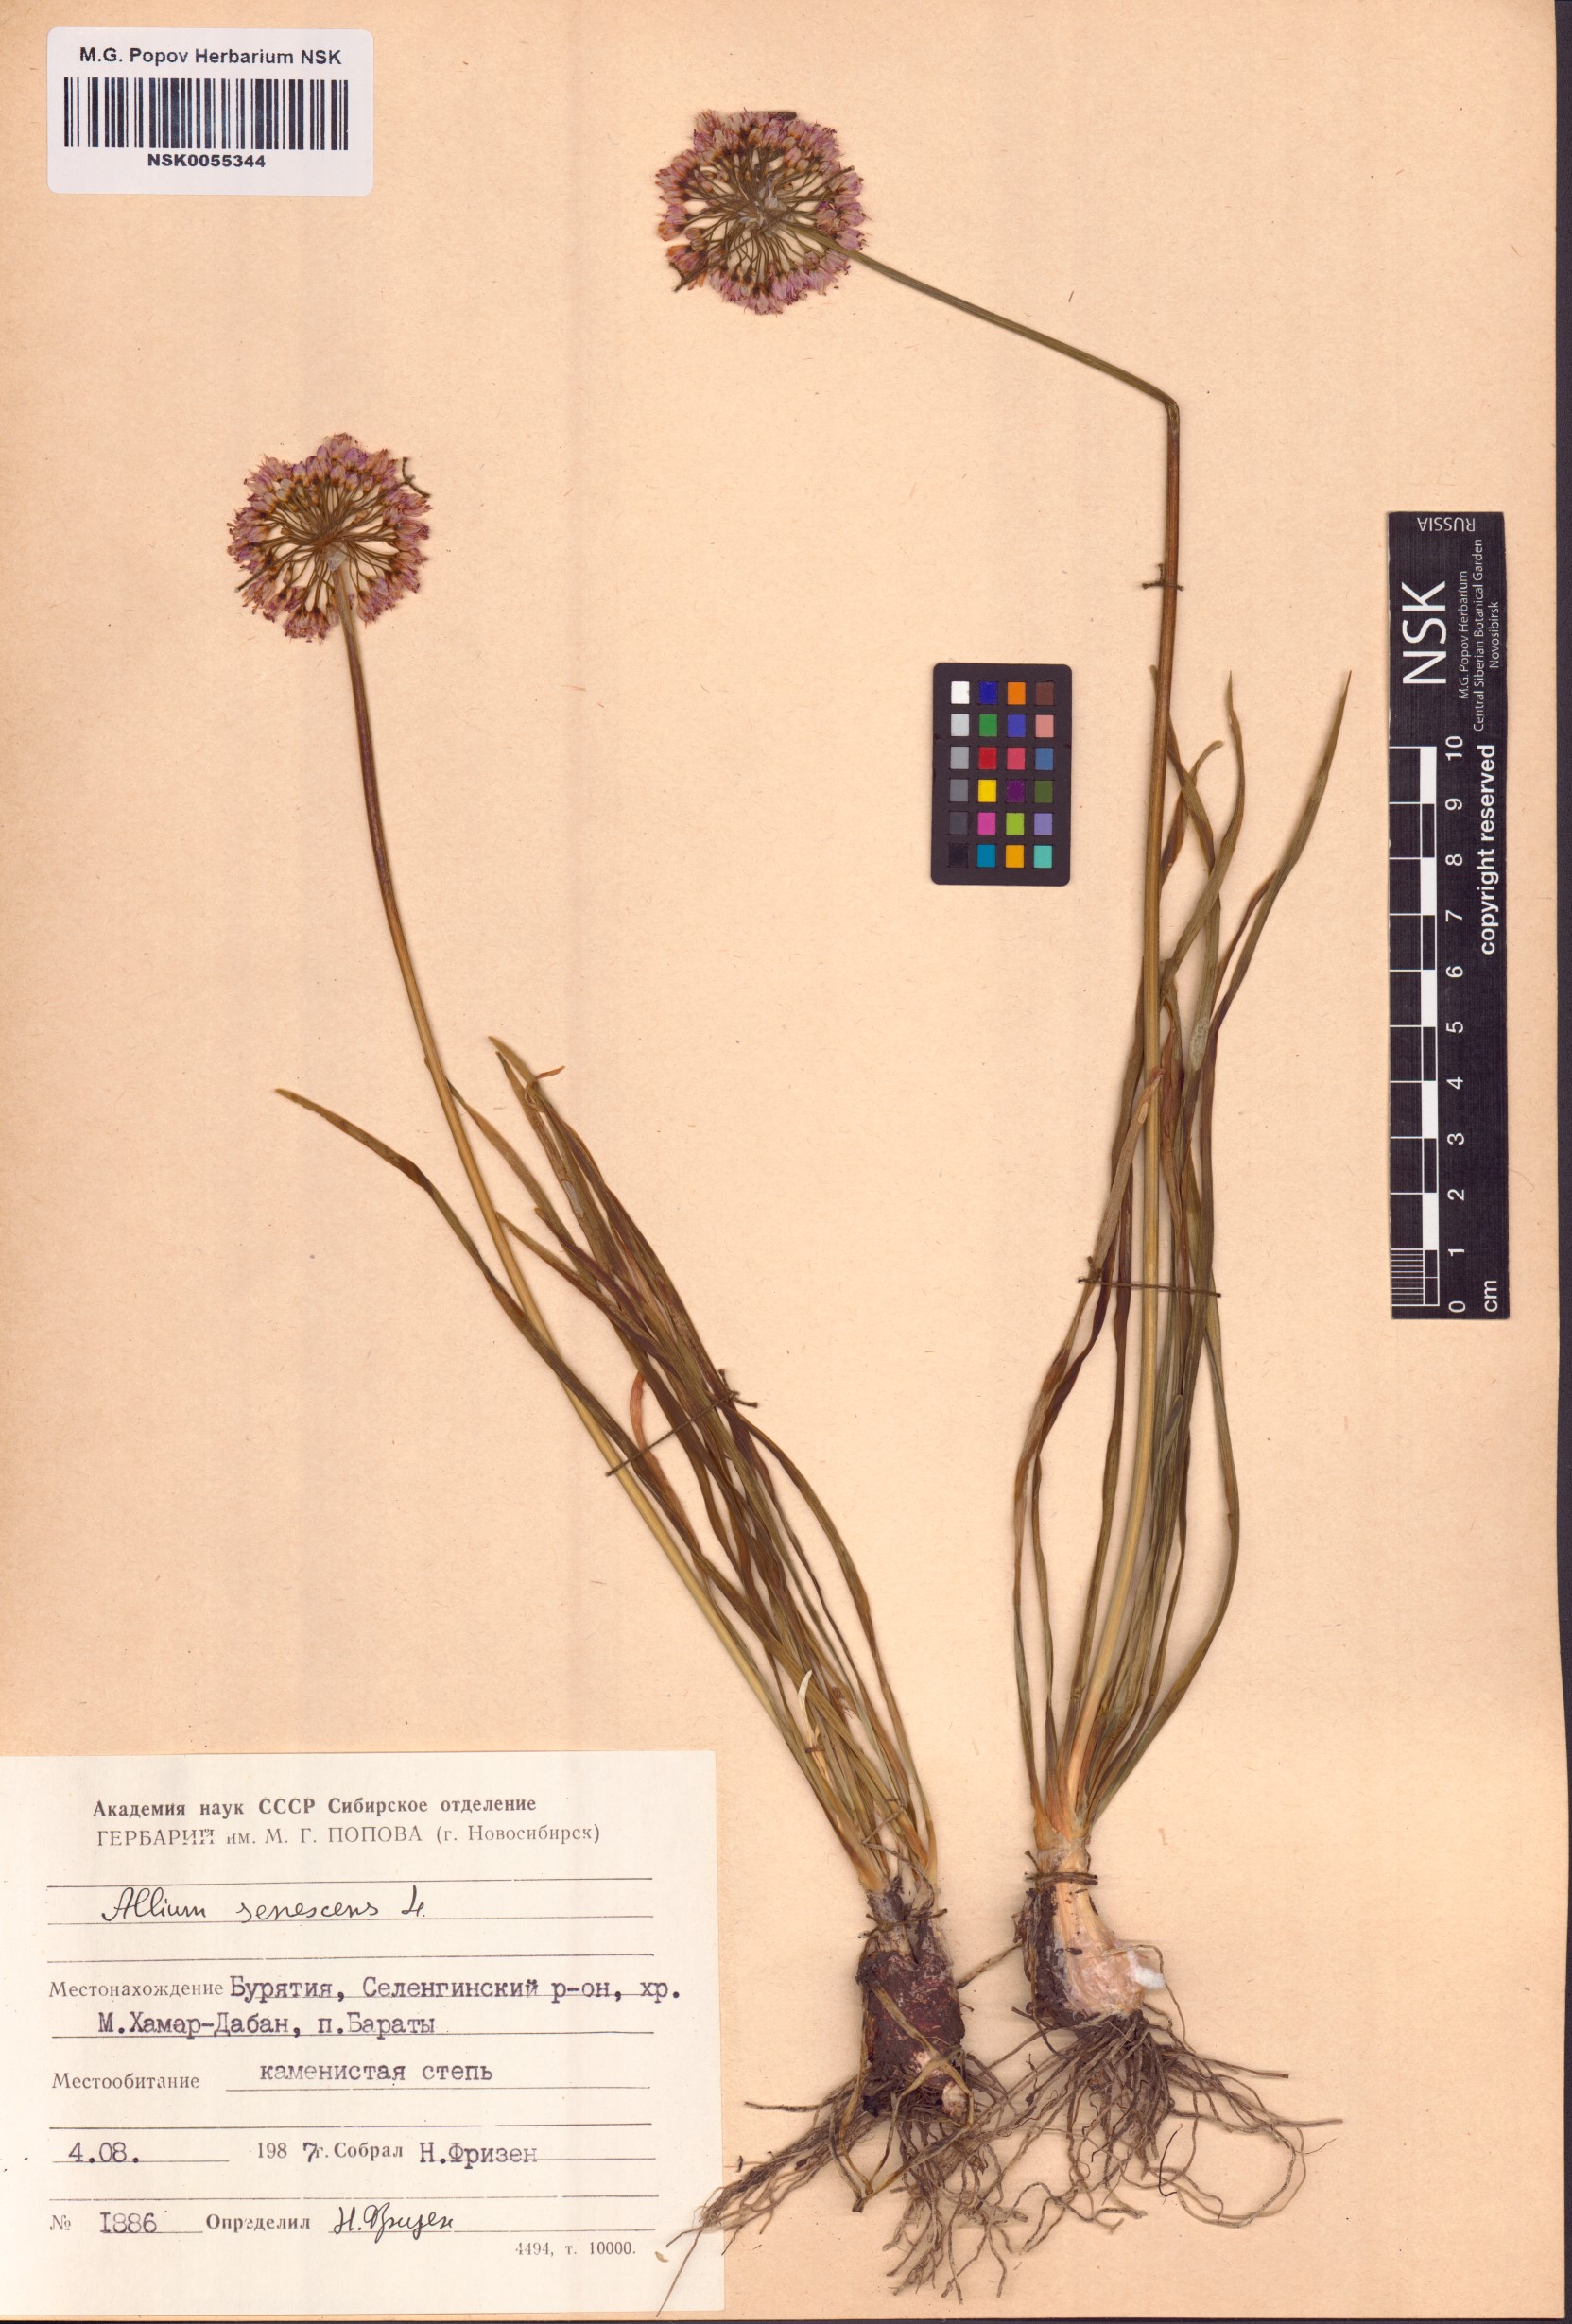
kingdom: Plantae
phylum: Tracheophyta
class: Liliopsida
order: Asparagales
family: Amaryllidaceae
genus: Allium
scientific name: Allium senescens
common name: German garlic
